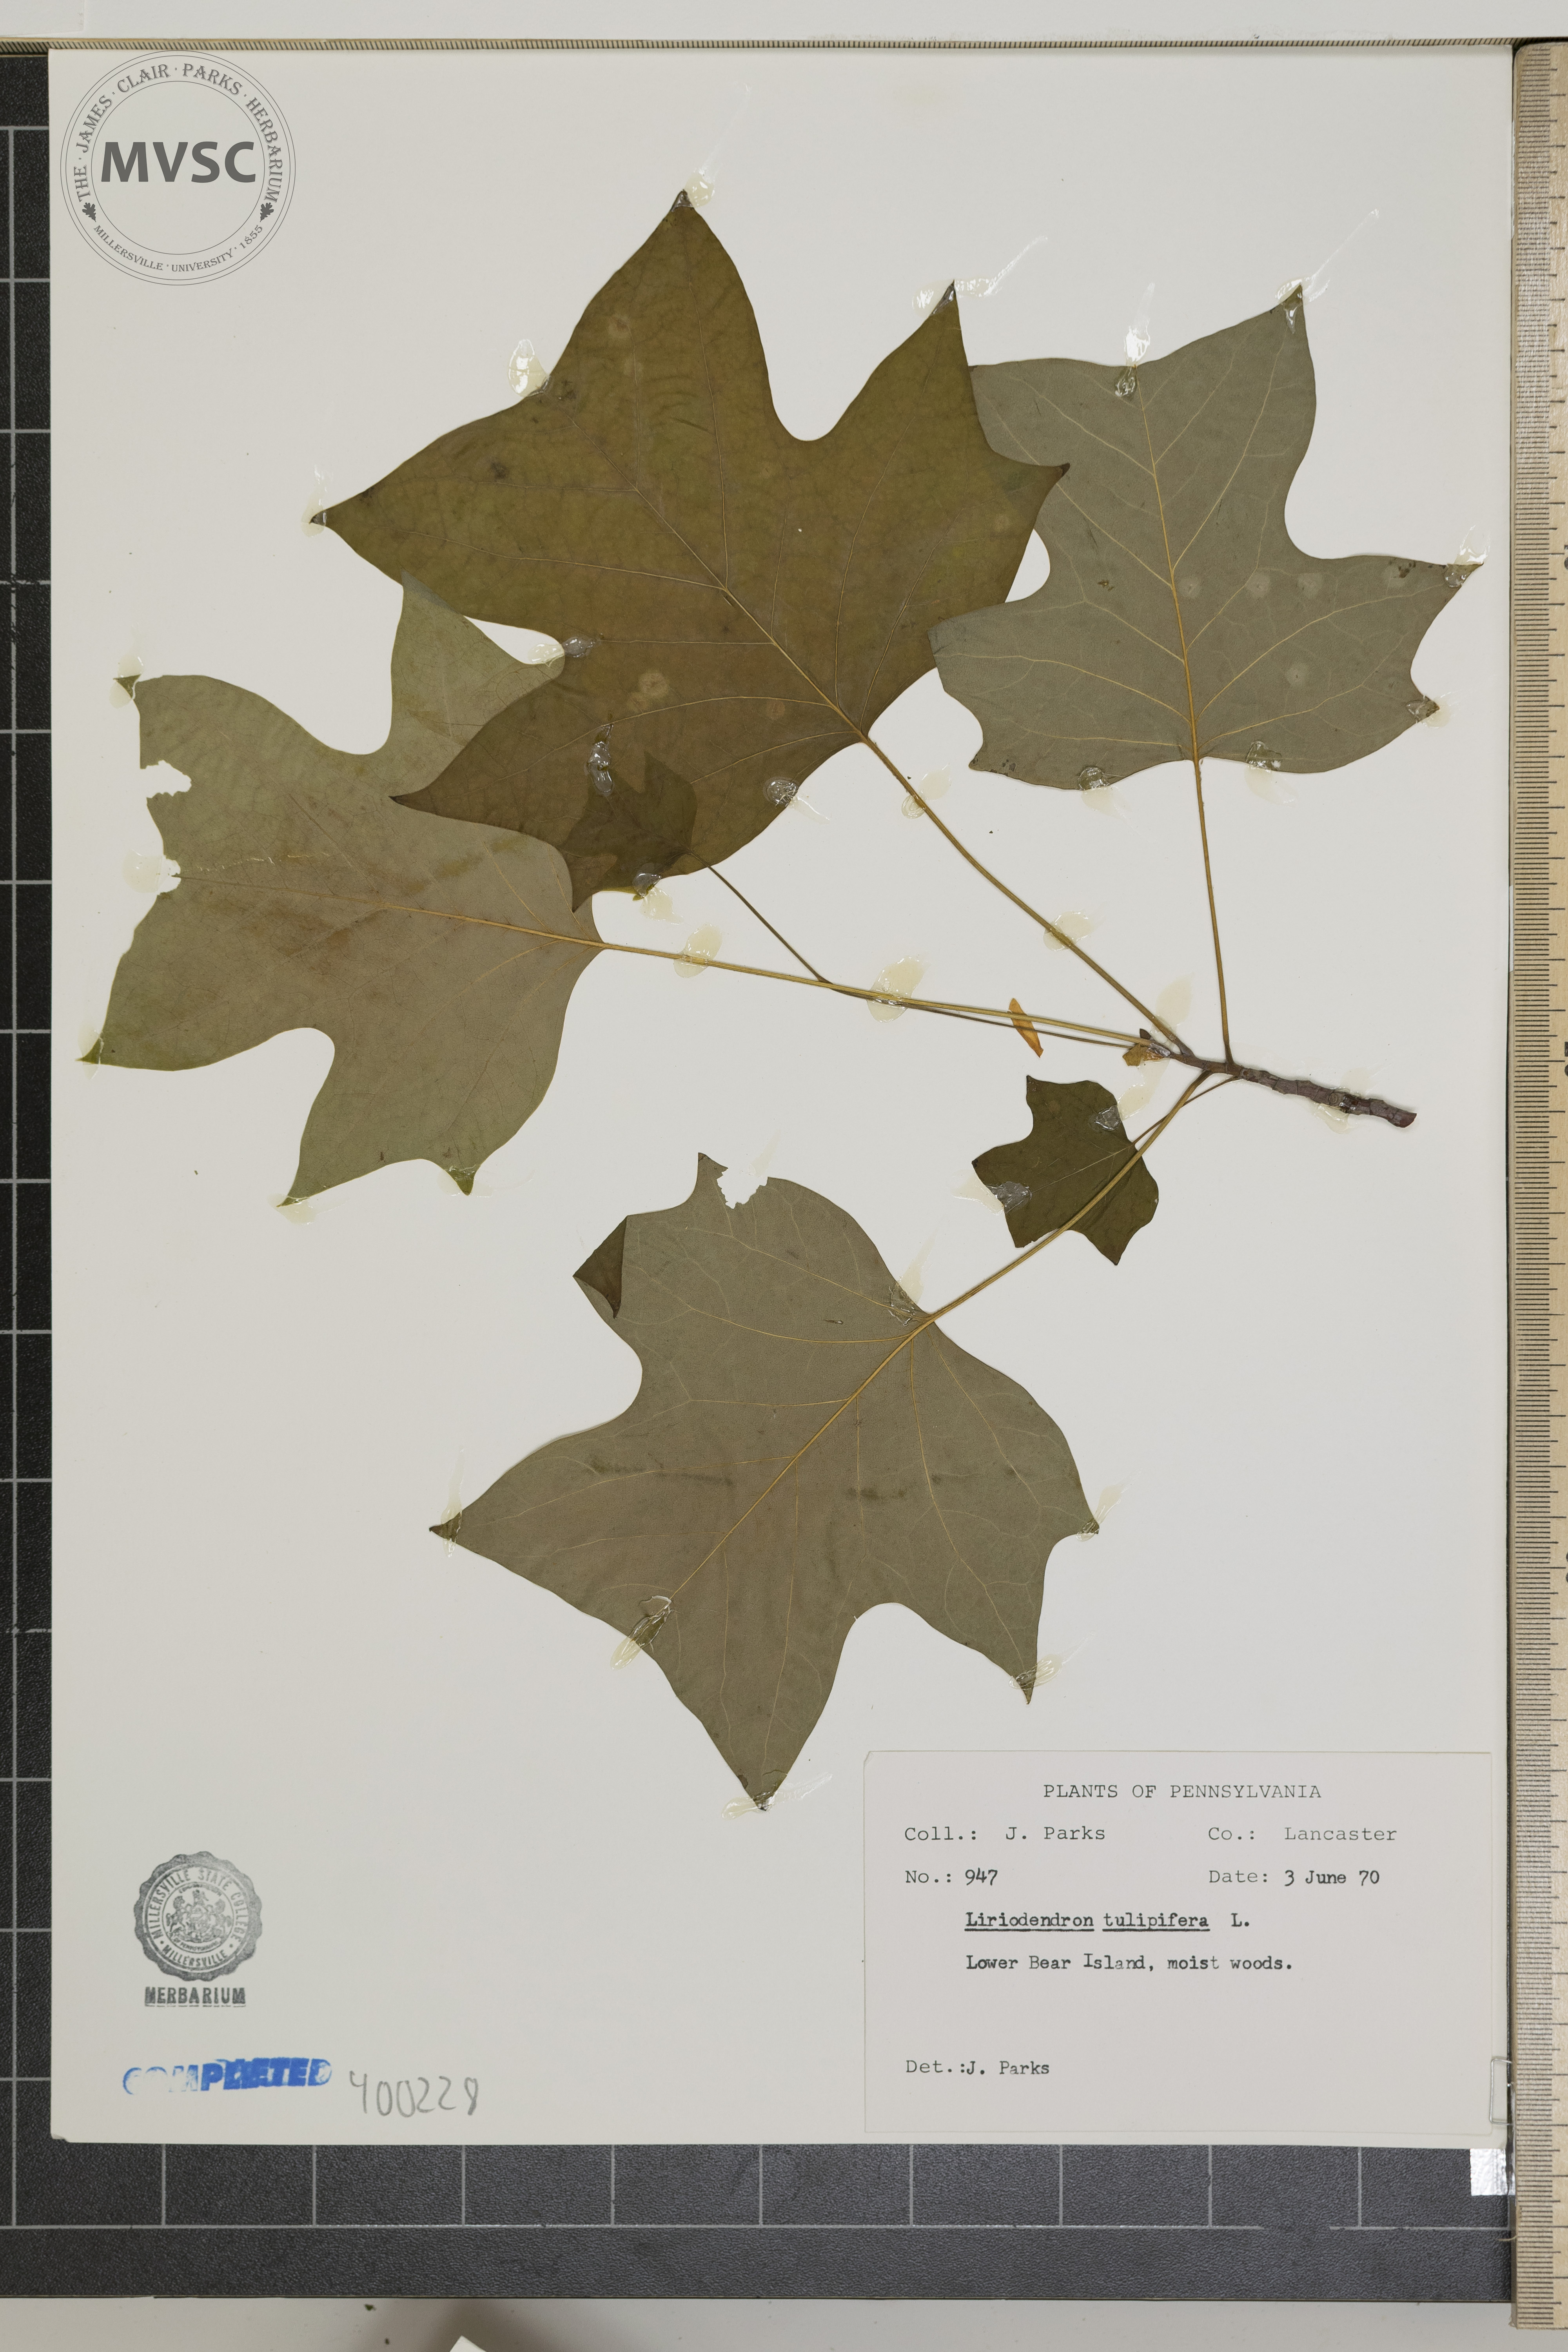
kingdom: Plantae
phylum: Tracheophyta
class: Magnoliopsida
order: Magnoliales
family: Magnoliaceae
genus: Liriodendron
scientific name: Liriodendron tulipifera
